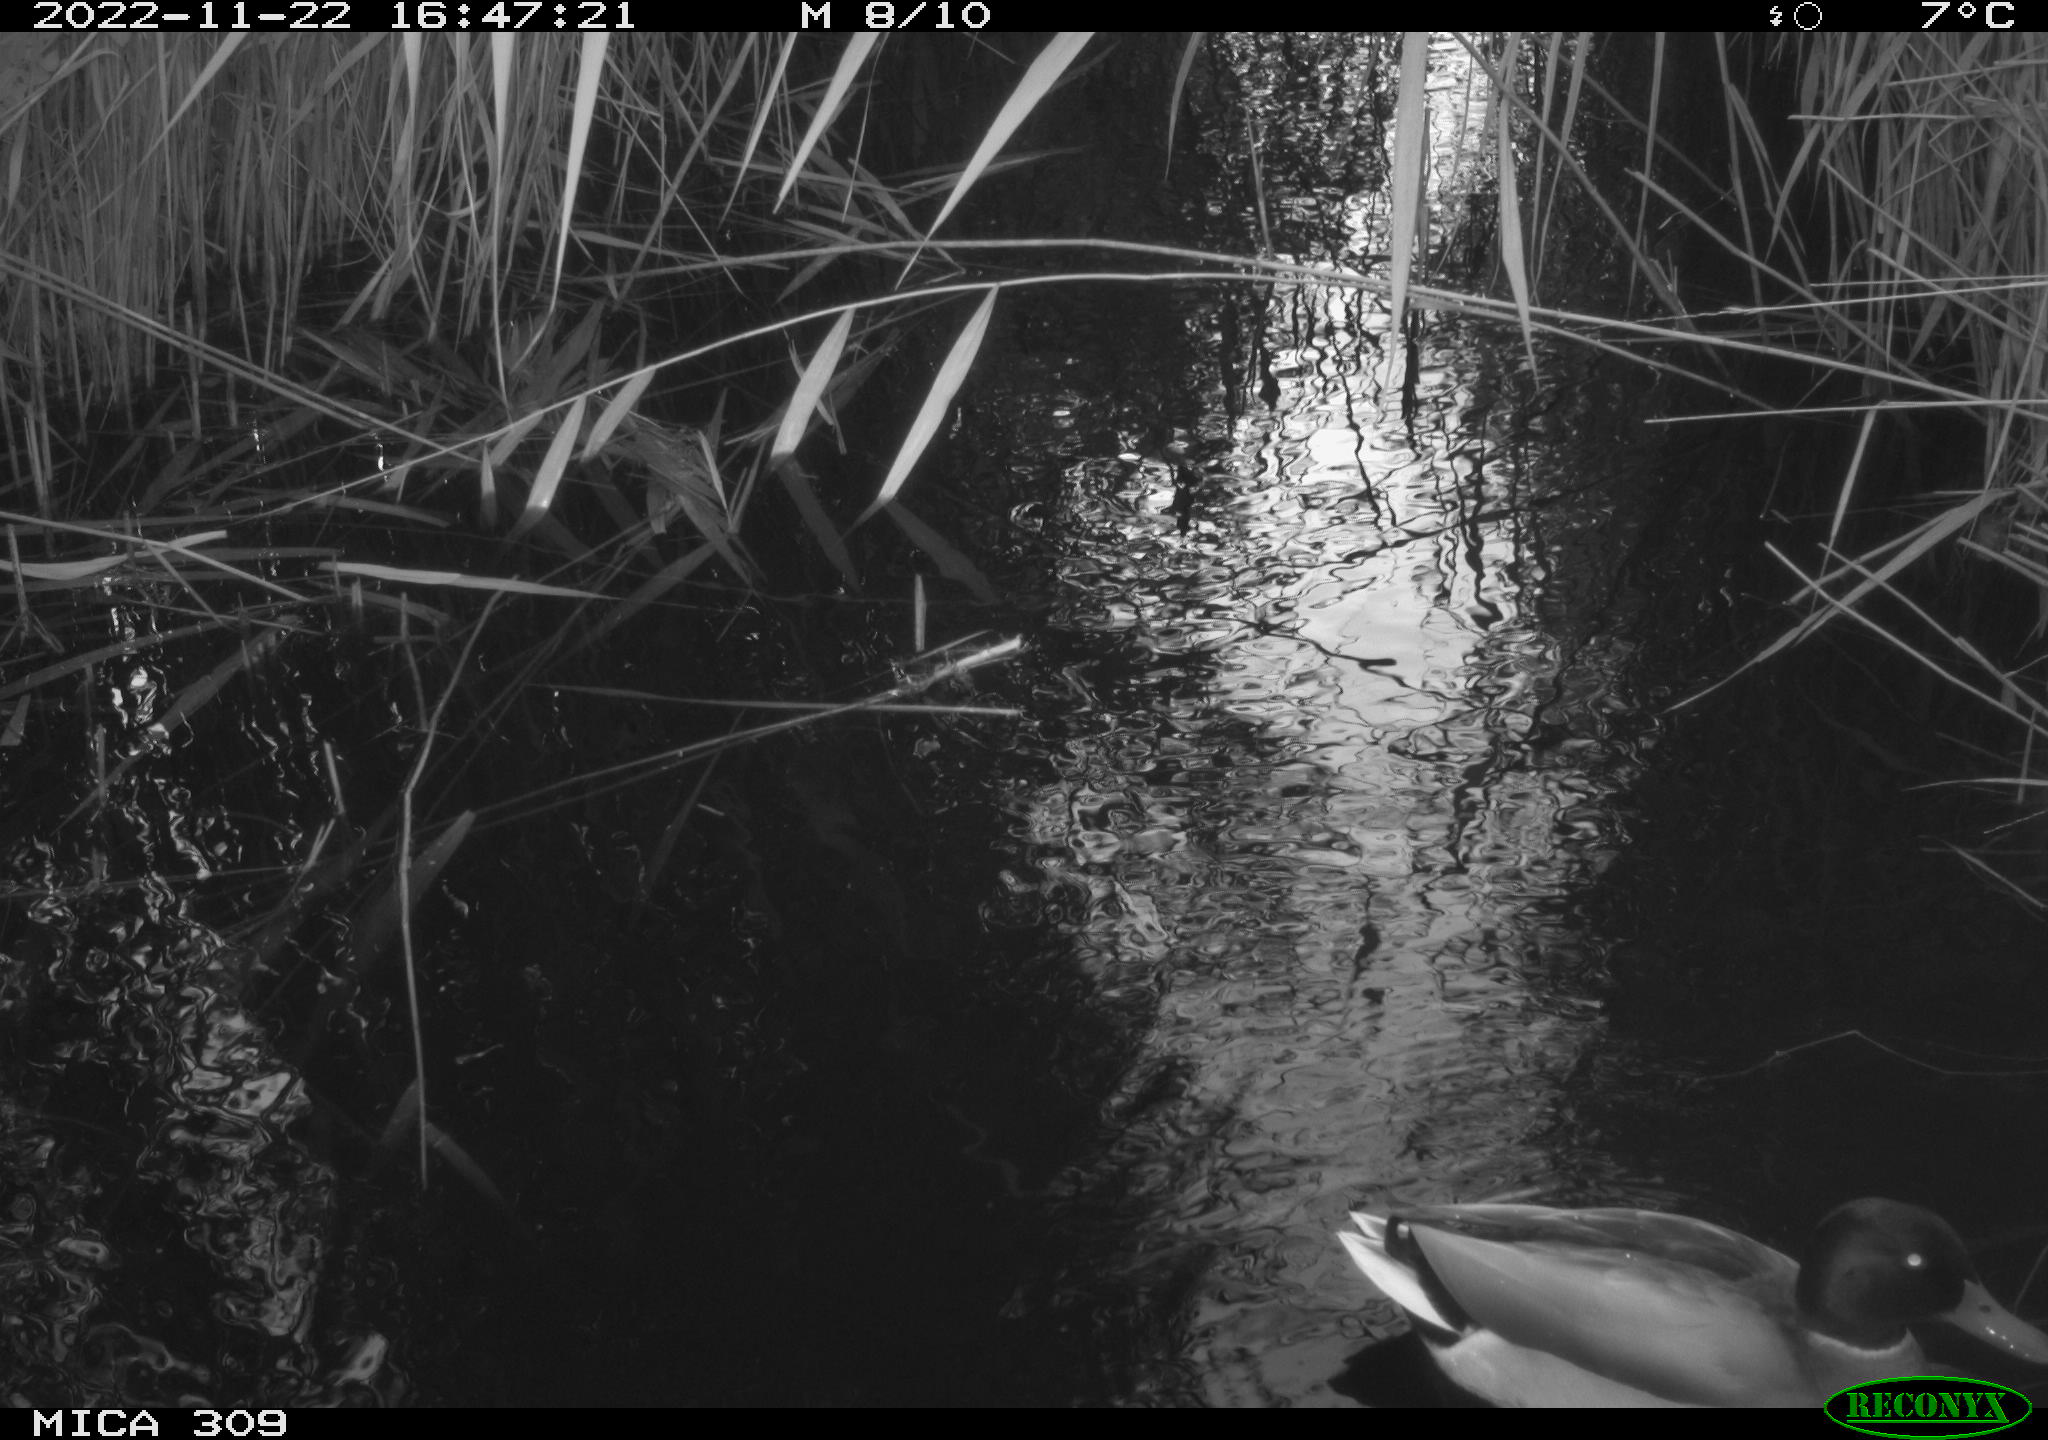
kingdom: Animalia
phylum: Chordata
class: Aves
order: Anseriformes
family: Anatidae
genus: Anas
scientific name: Anas
